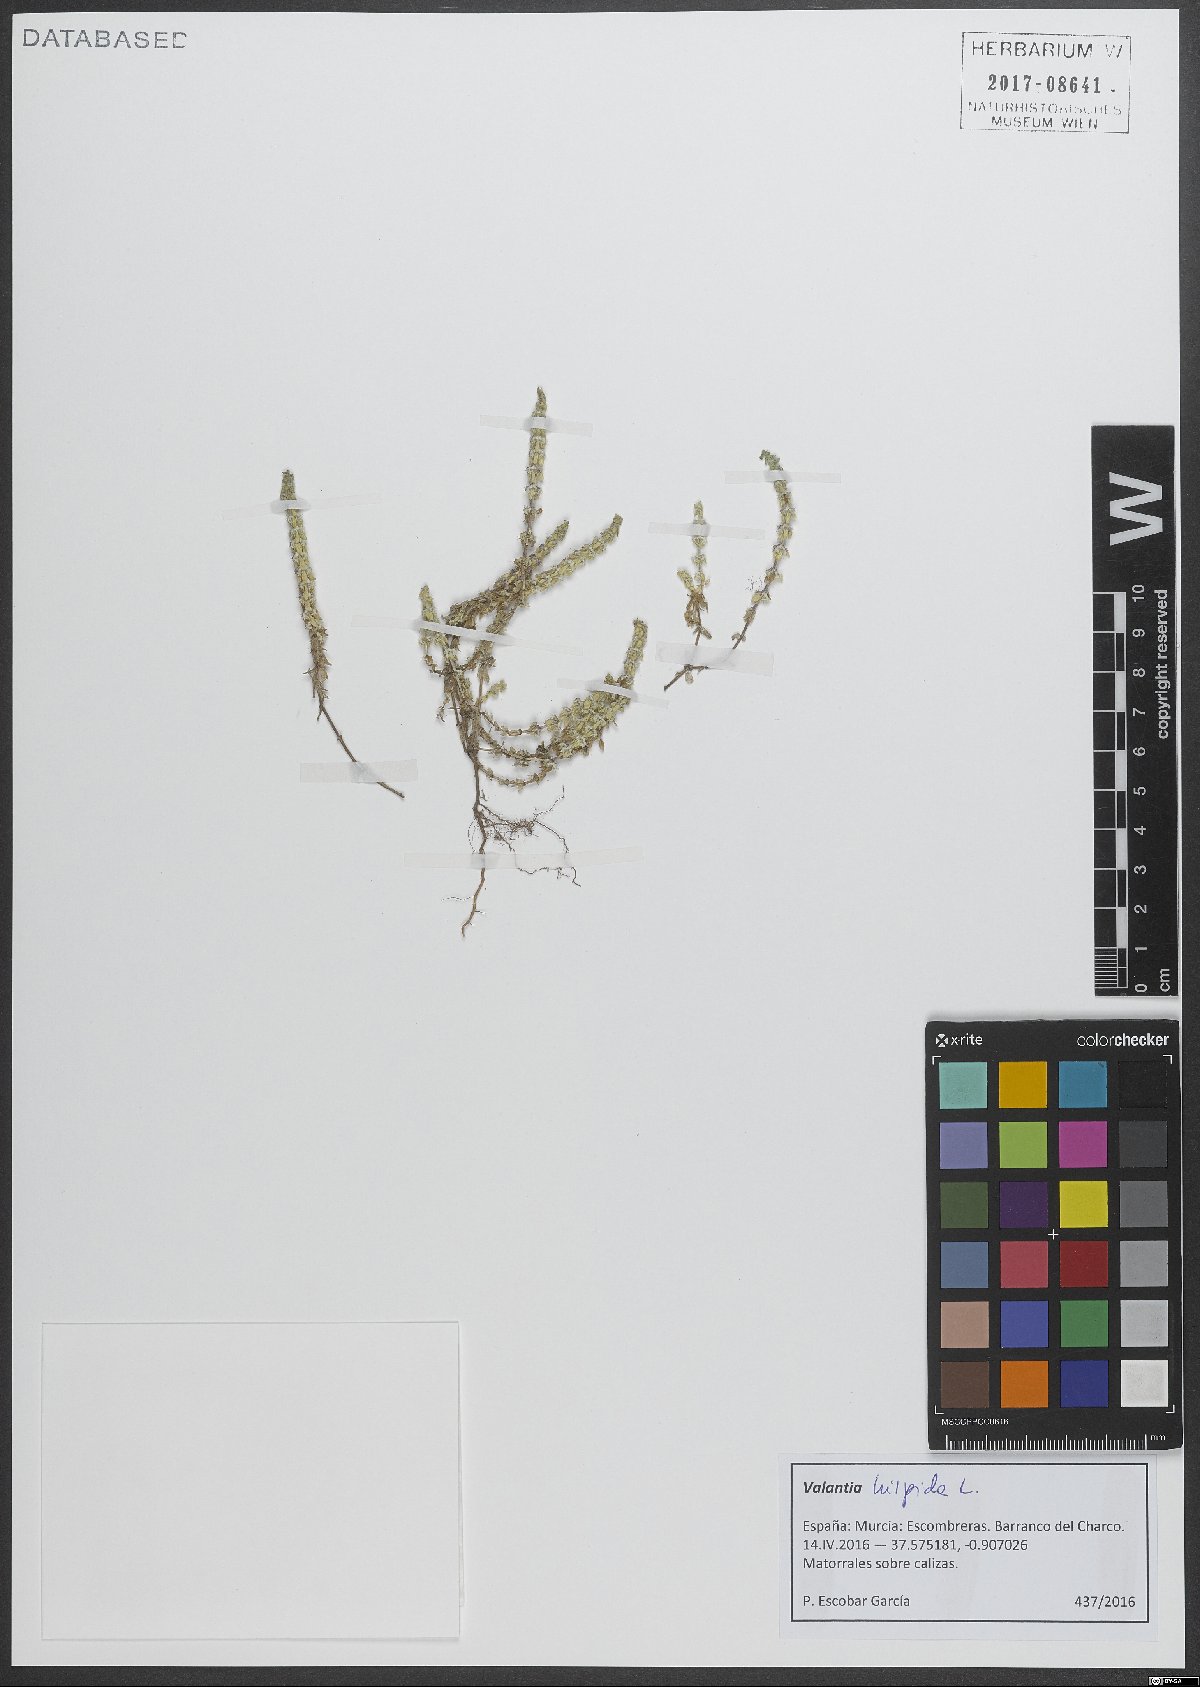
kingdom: Plantae
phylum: Tracheophyta
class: Magnoliopsida
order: Gentianales
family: Rubiaceae
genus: Valantia
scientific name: Valantia hispida
